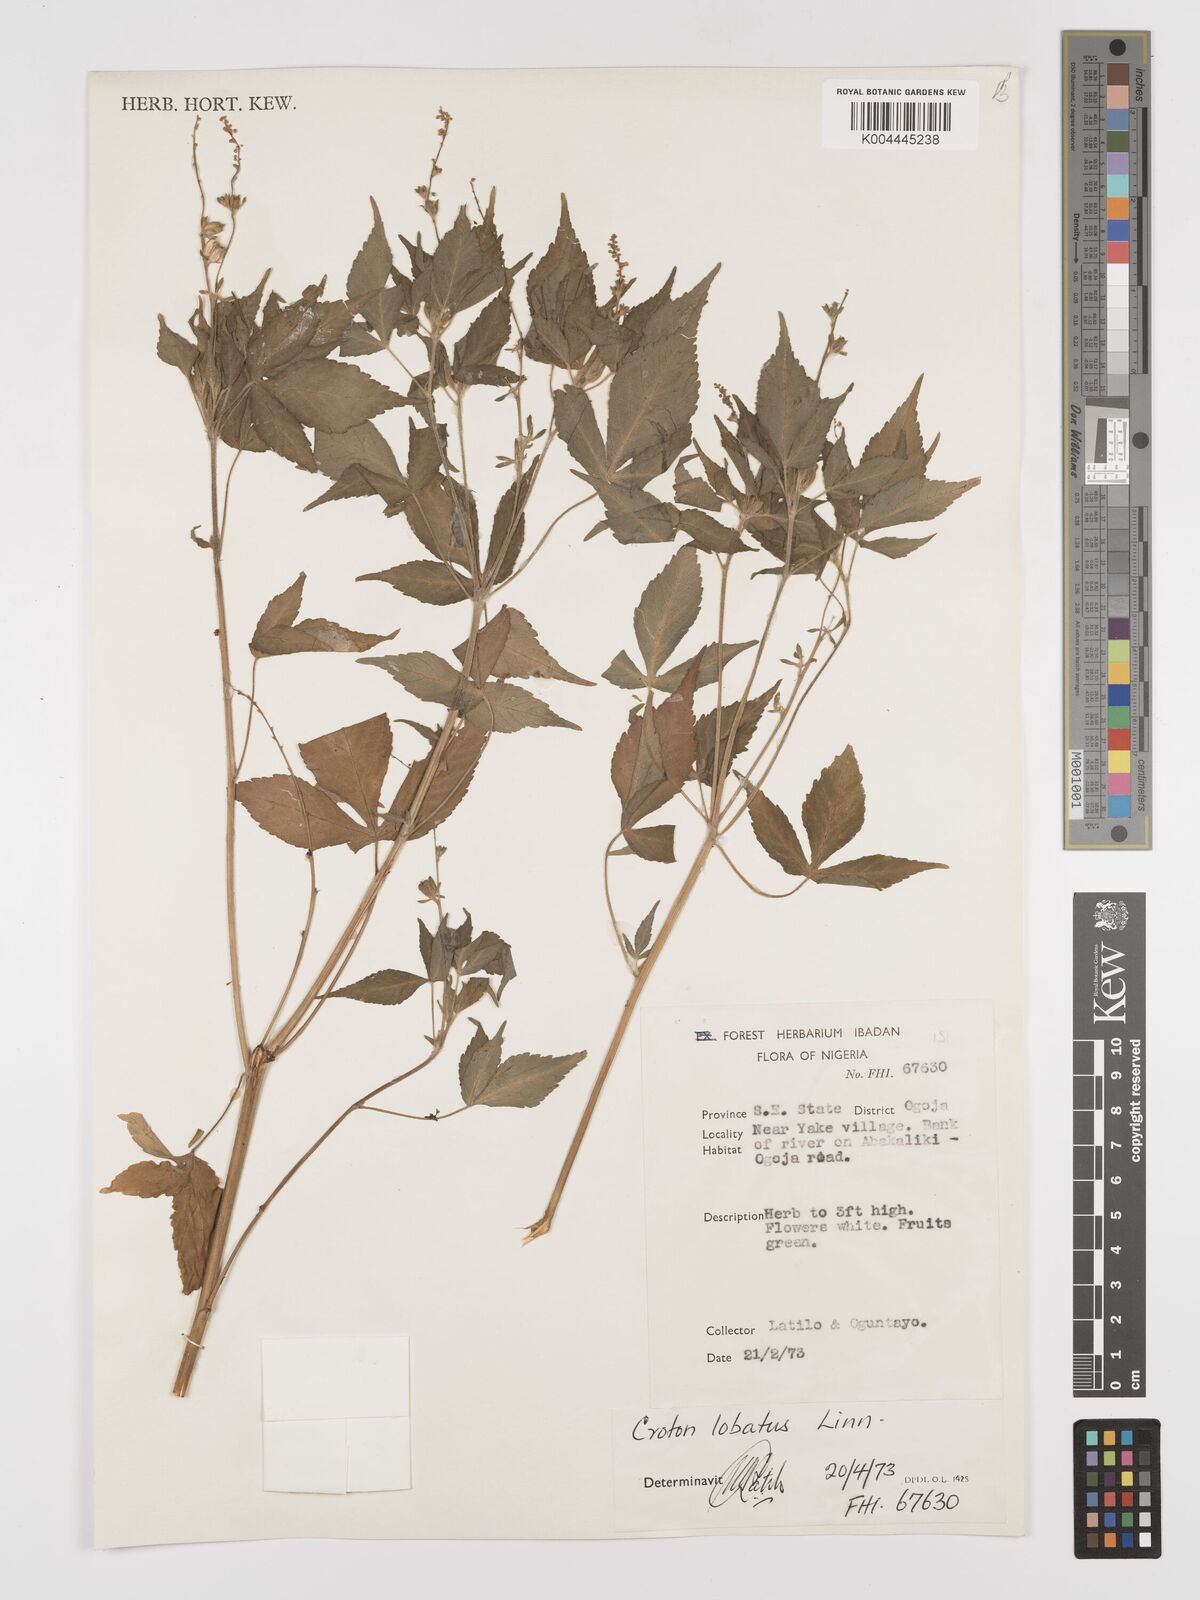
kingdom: Plantae
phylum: Tracheophyta
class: Magnoliopsida
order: Malpighiales
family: Euphorbiaceae
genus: Astraea
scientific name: Astraea lobata
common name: Lobed croton
